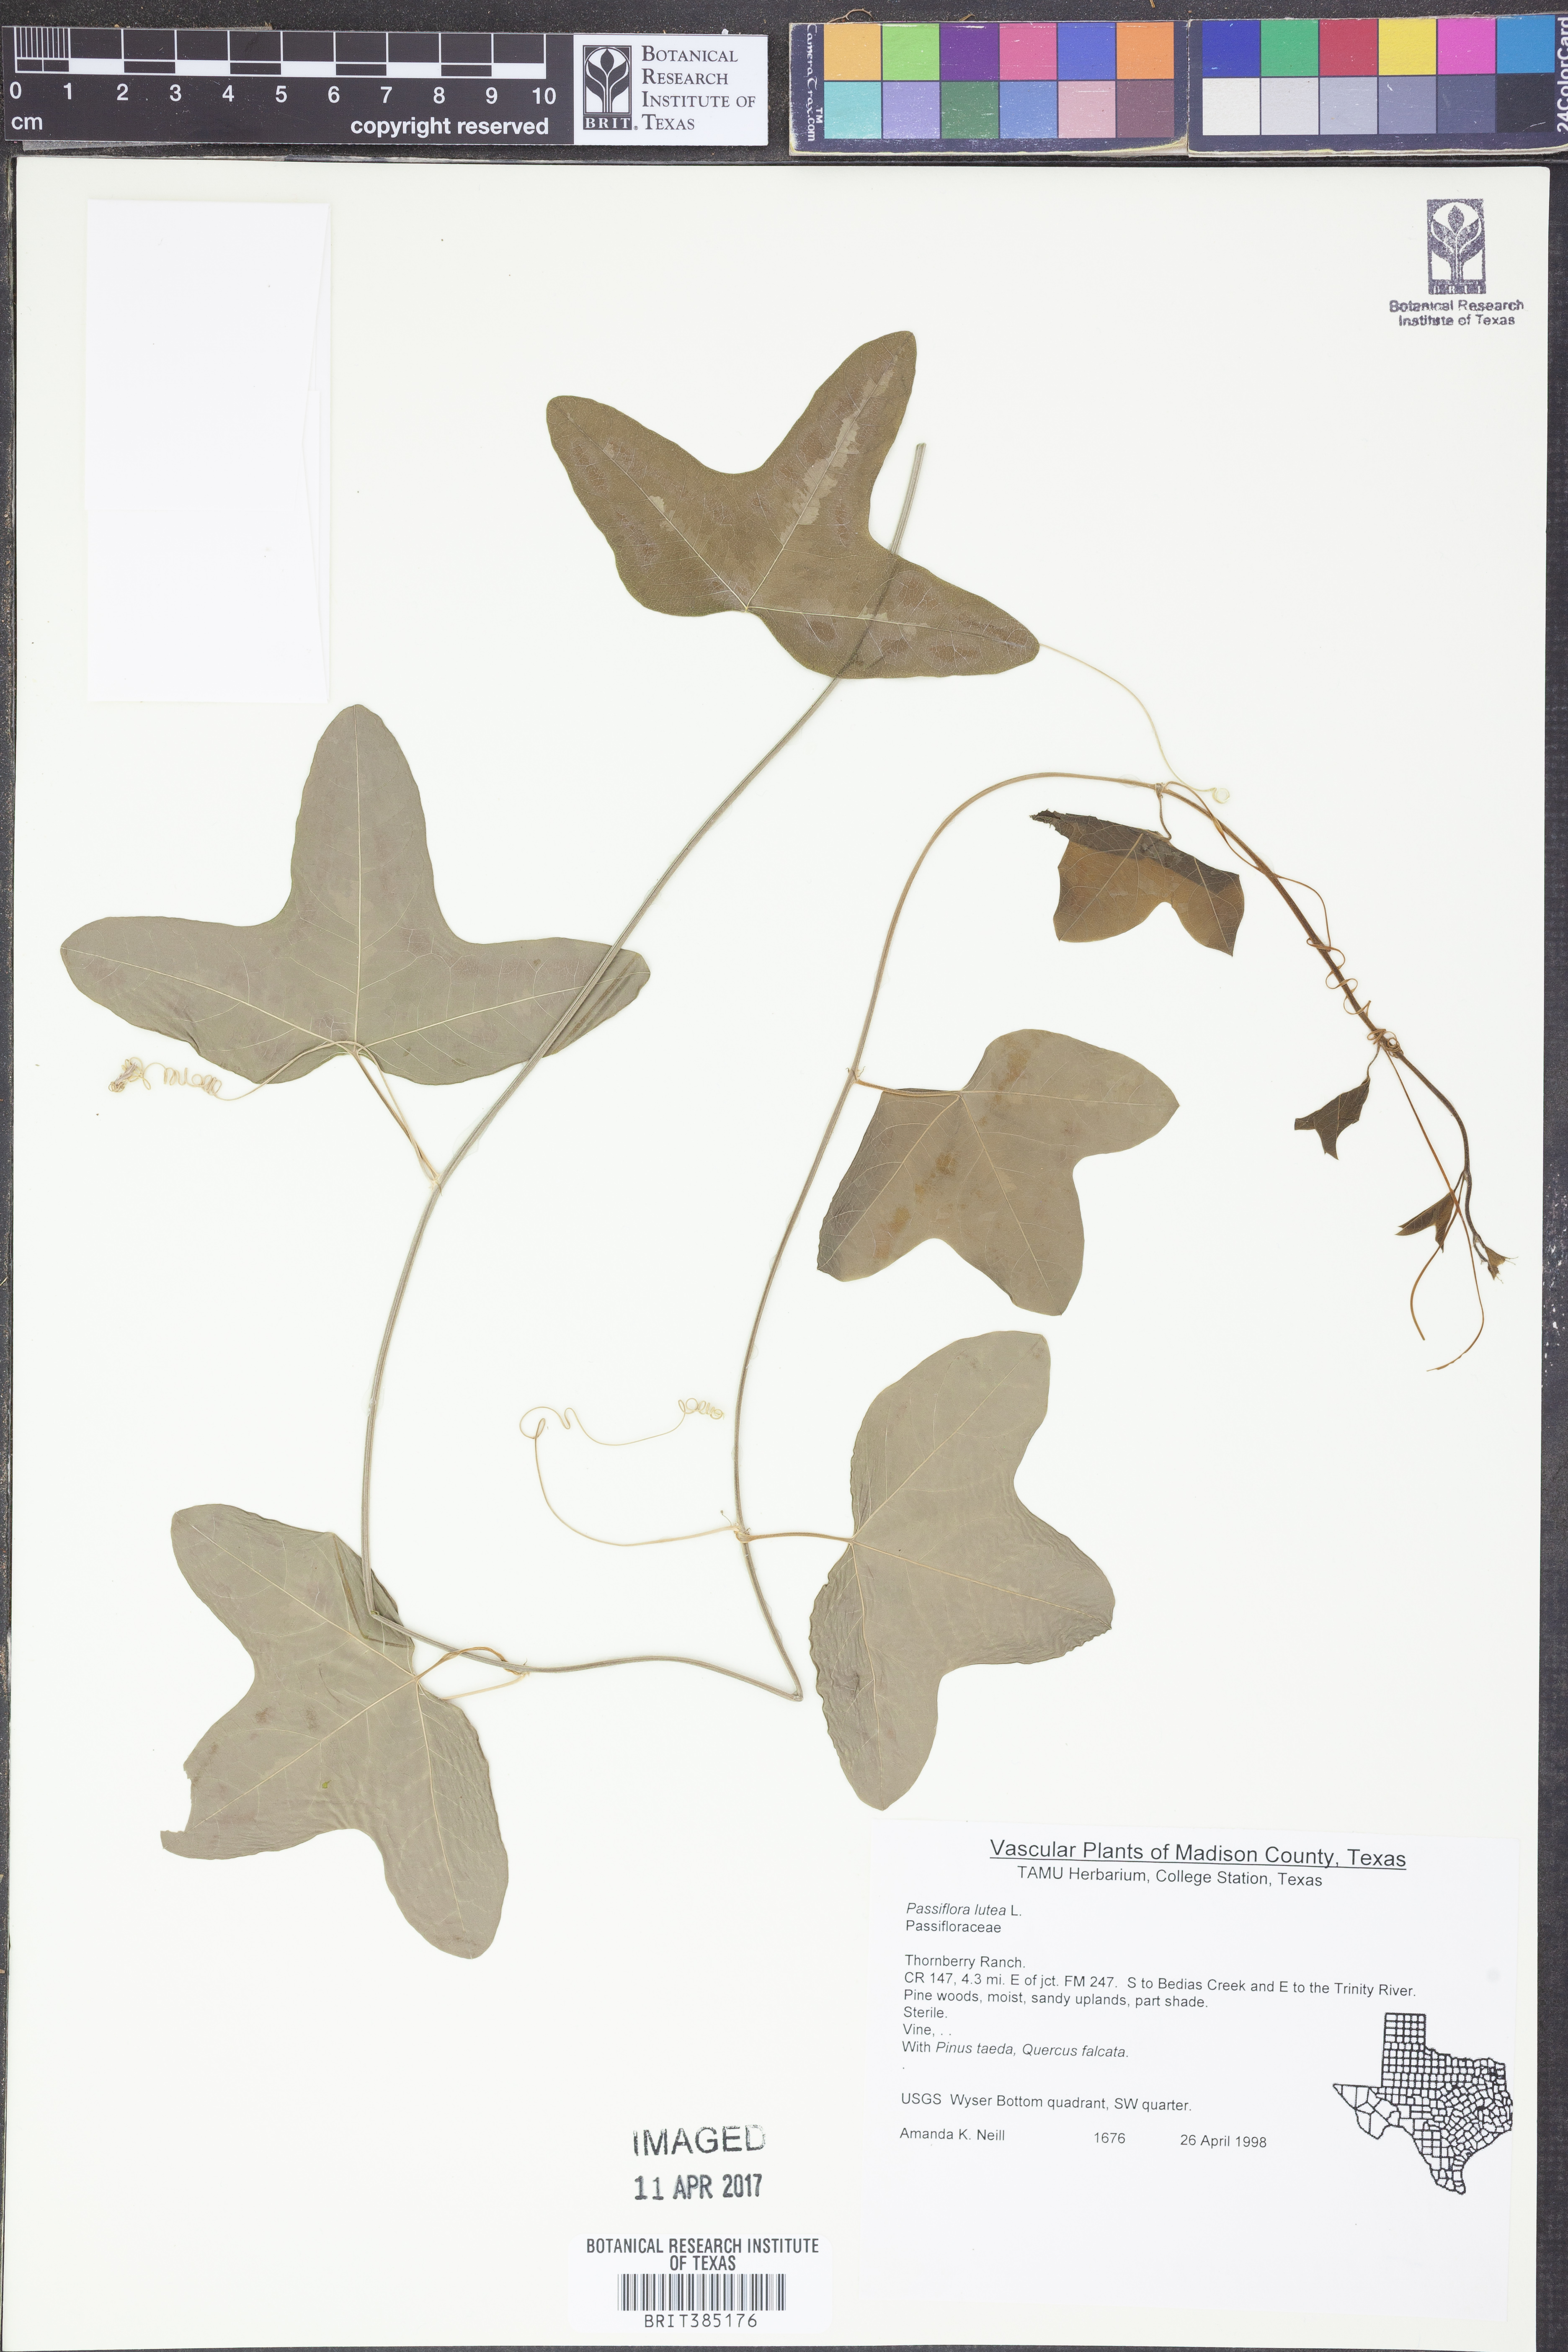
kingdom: Plantae
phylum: Tracheophyta
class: Magnoliopsida
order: Malpighiales
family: Passifloraceae
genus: Passiflora
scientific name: Passiflora lutea
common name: Yellow passionflower
